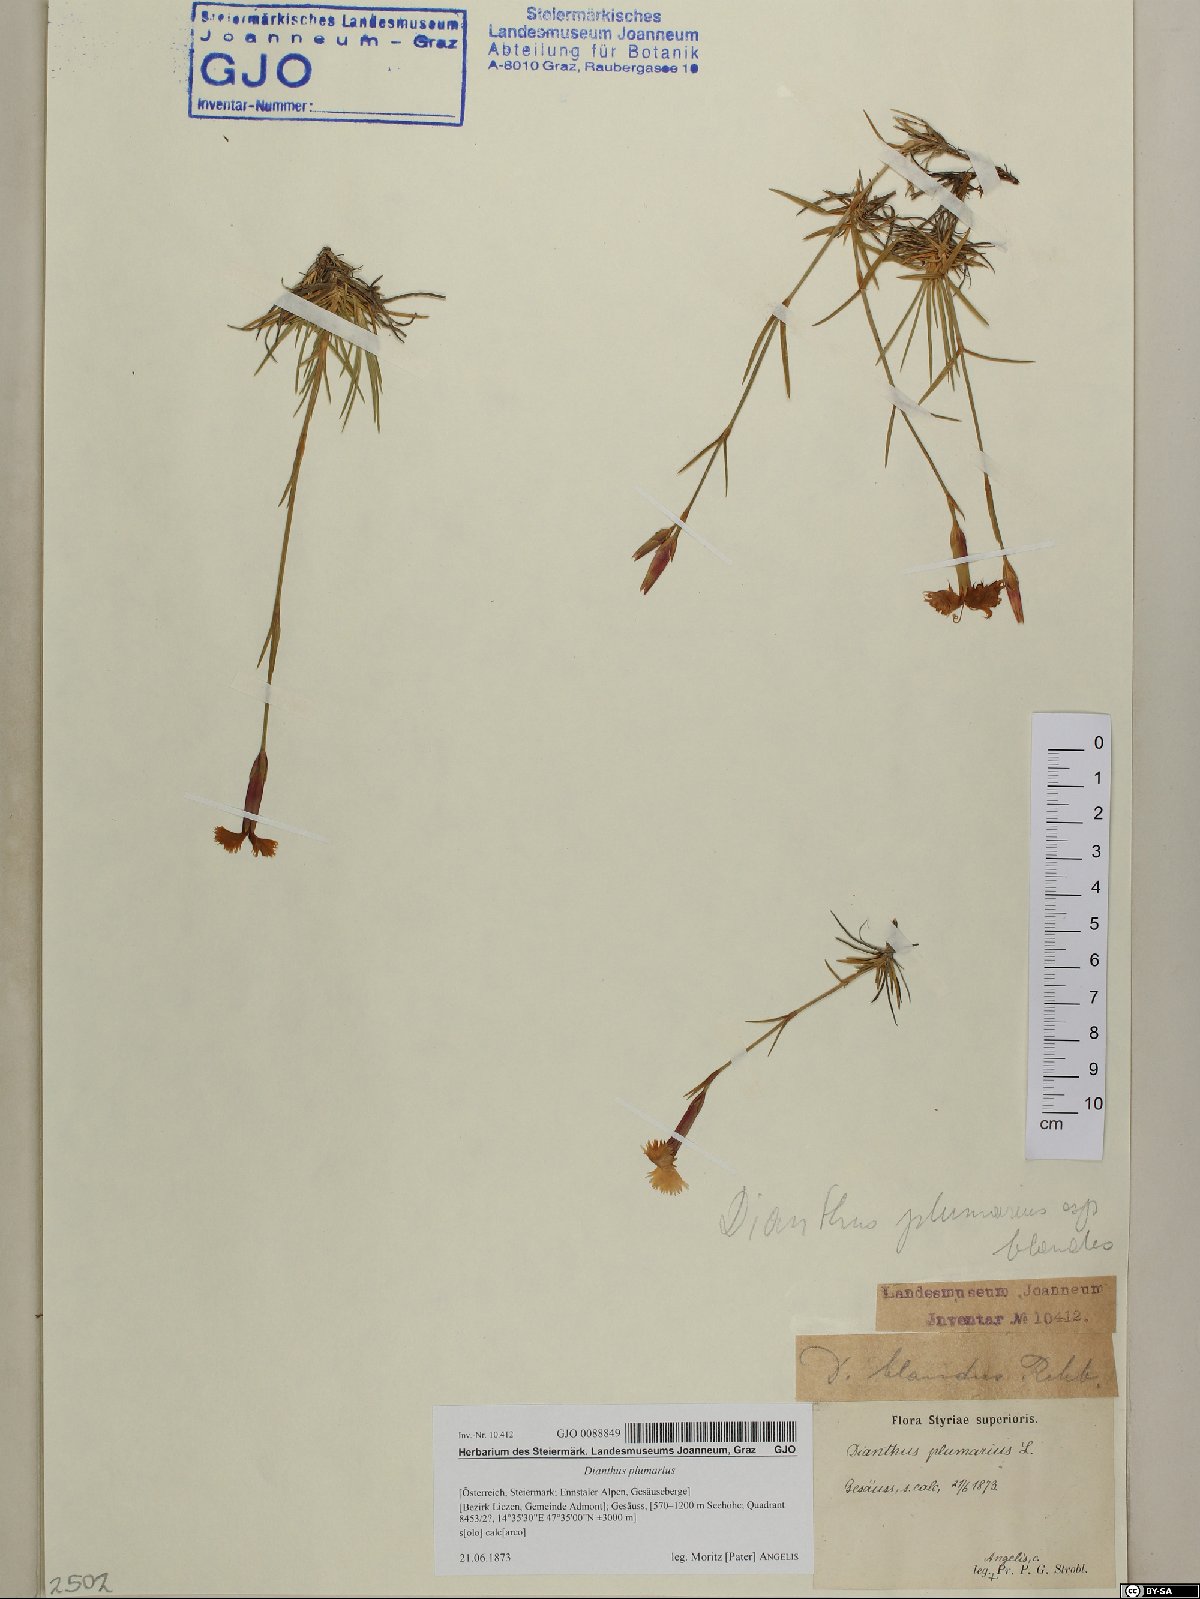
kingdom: Plantae
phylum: Tracheophyta
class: Magnoliopsida
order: Caryophyllales
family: Caryophyllaceae
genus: Dianthus
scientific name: Dianthus plumarius
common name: Pink
